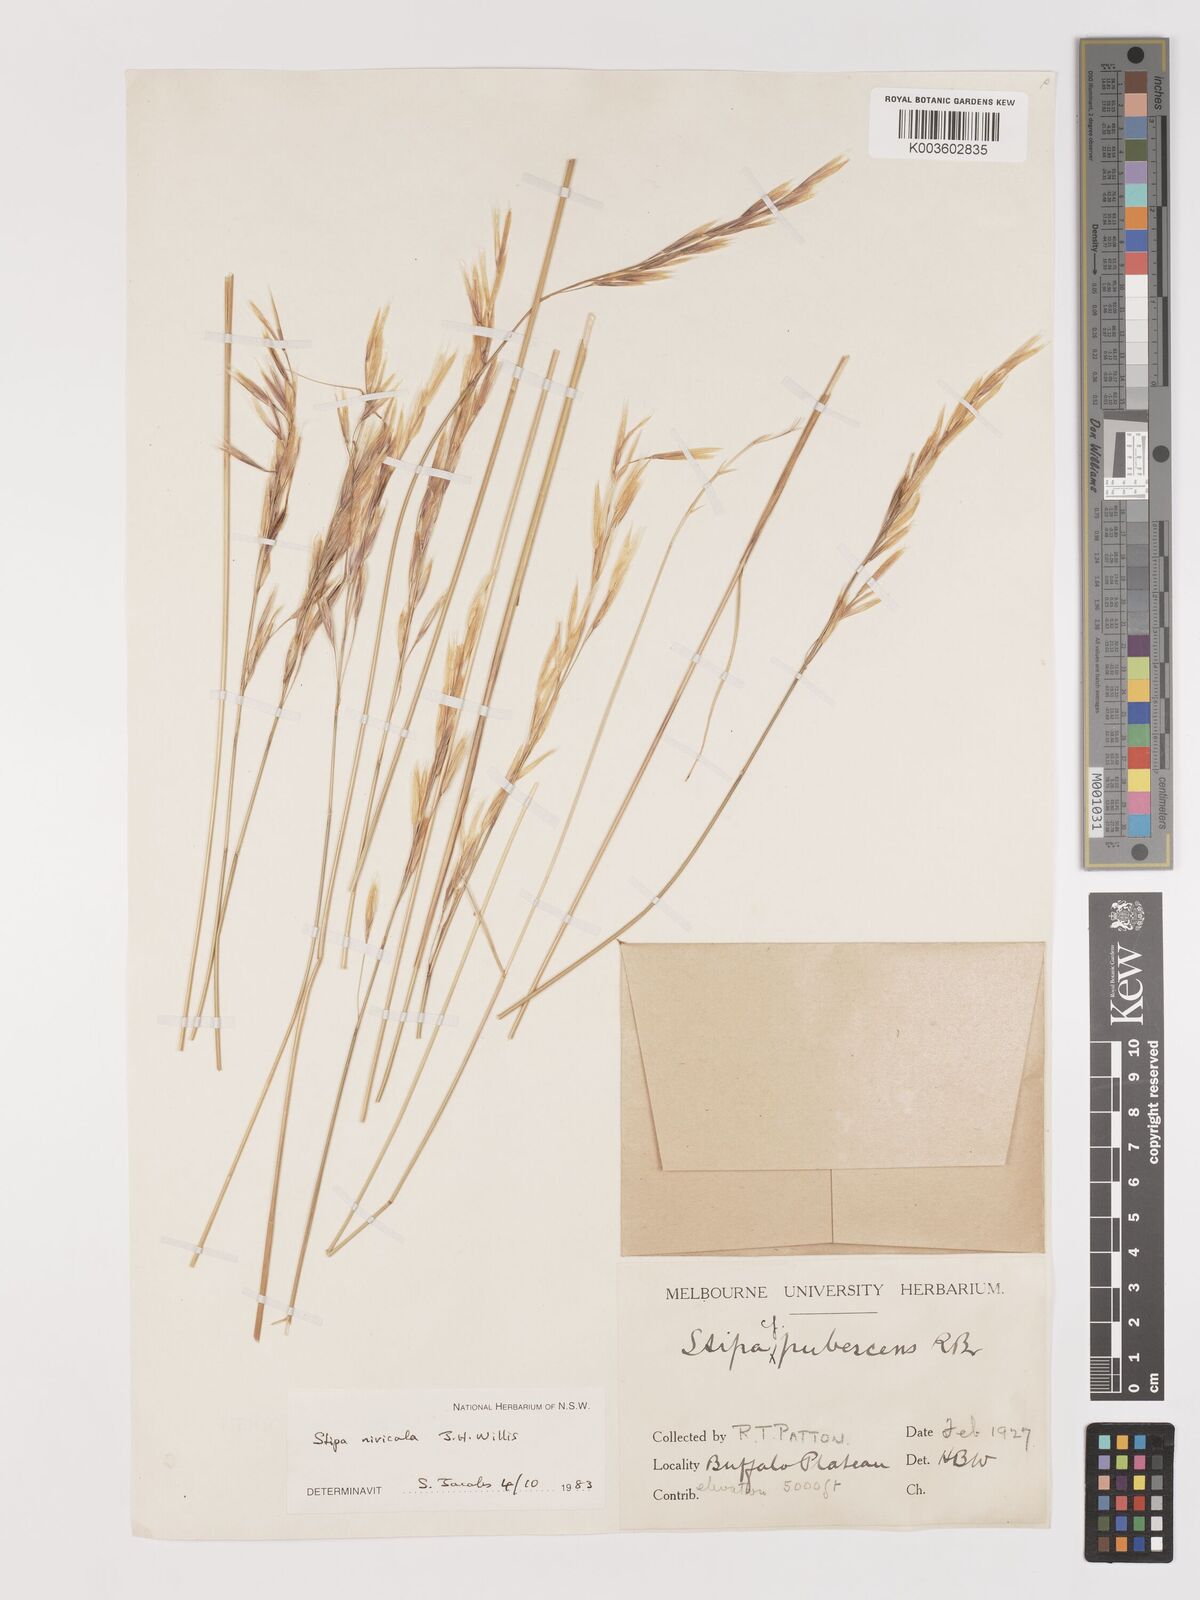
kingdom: Plantae
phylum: Tracheophyta
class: Liliopsida
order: Poales
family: Poaceae
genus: Austrostipa
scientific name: Austrostipa nivicola
